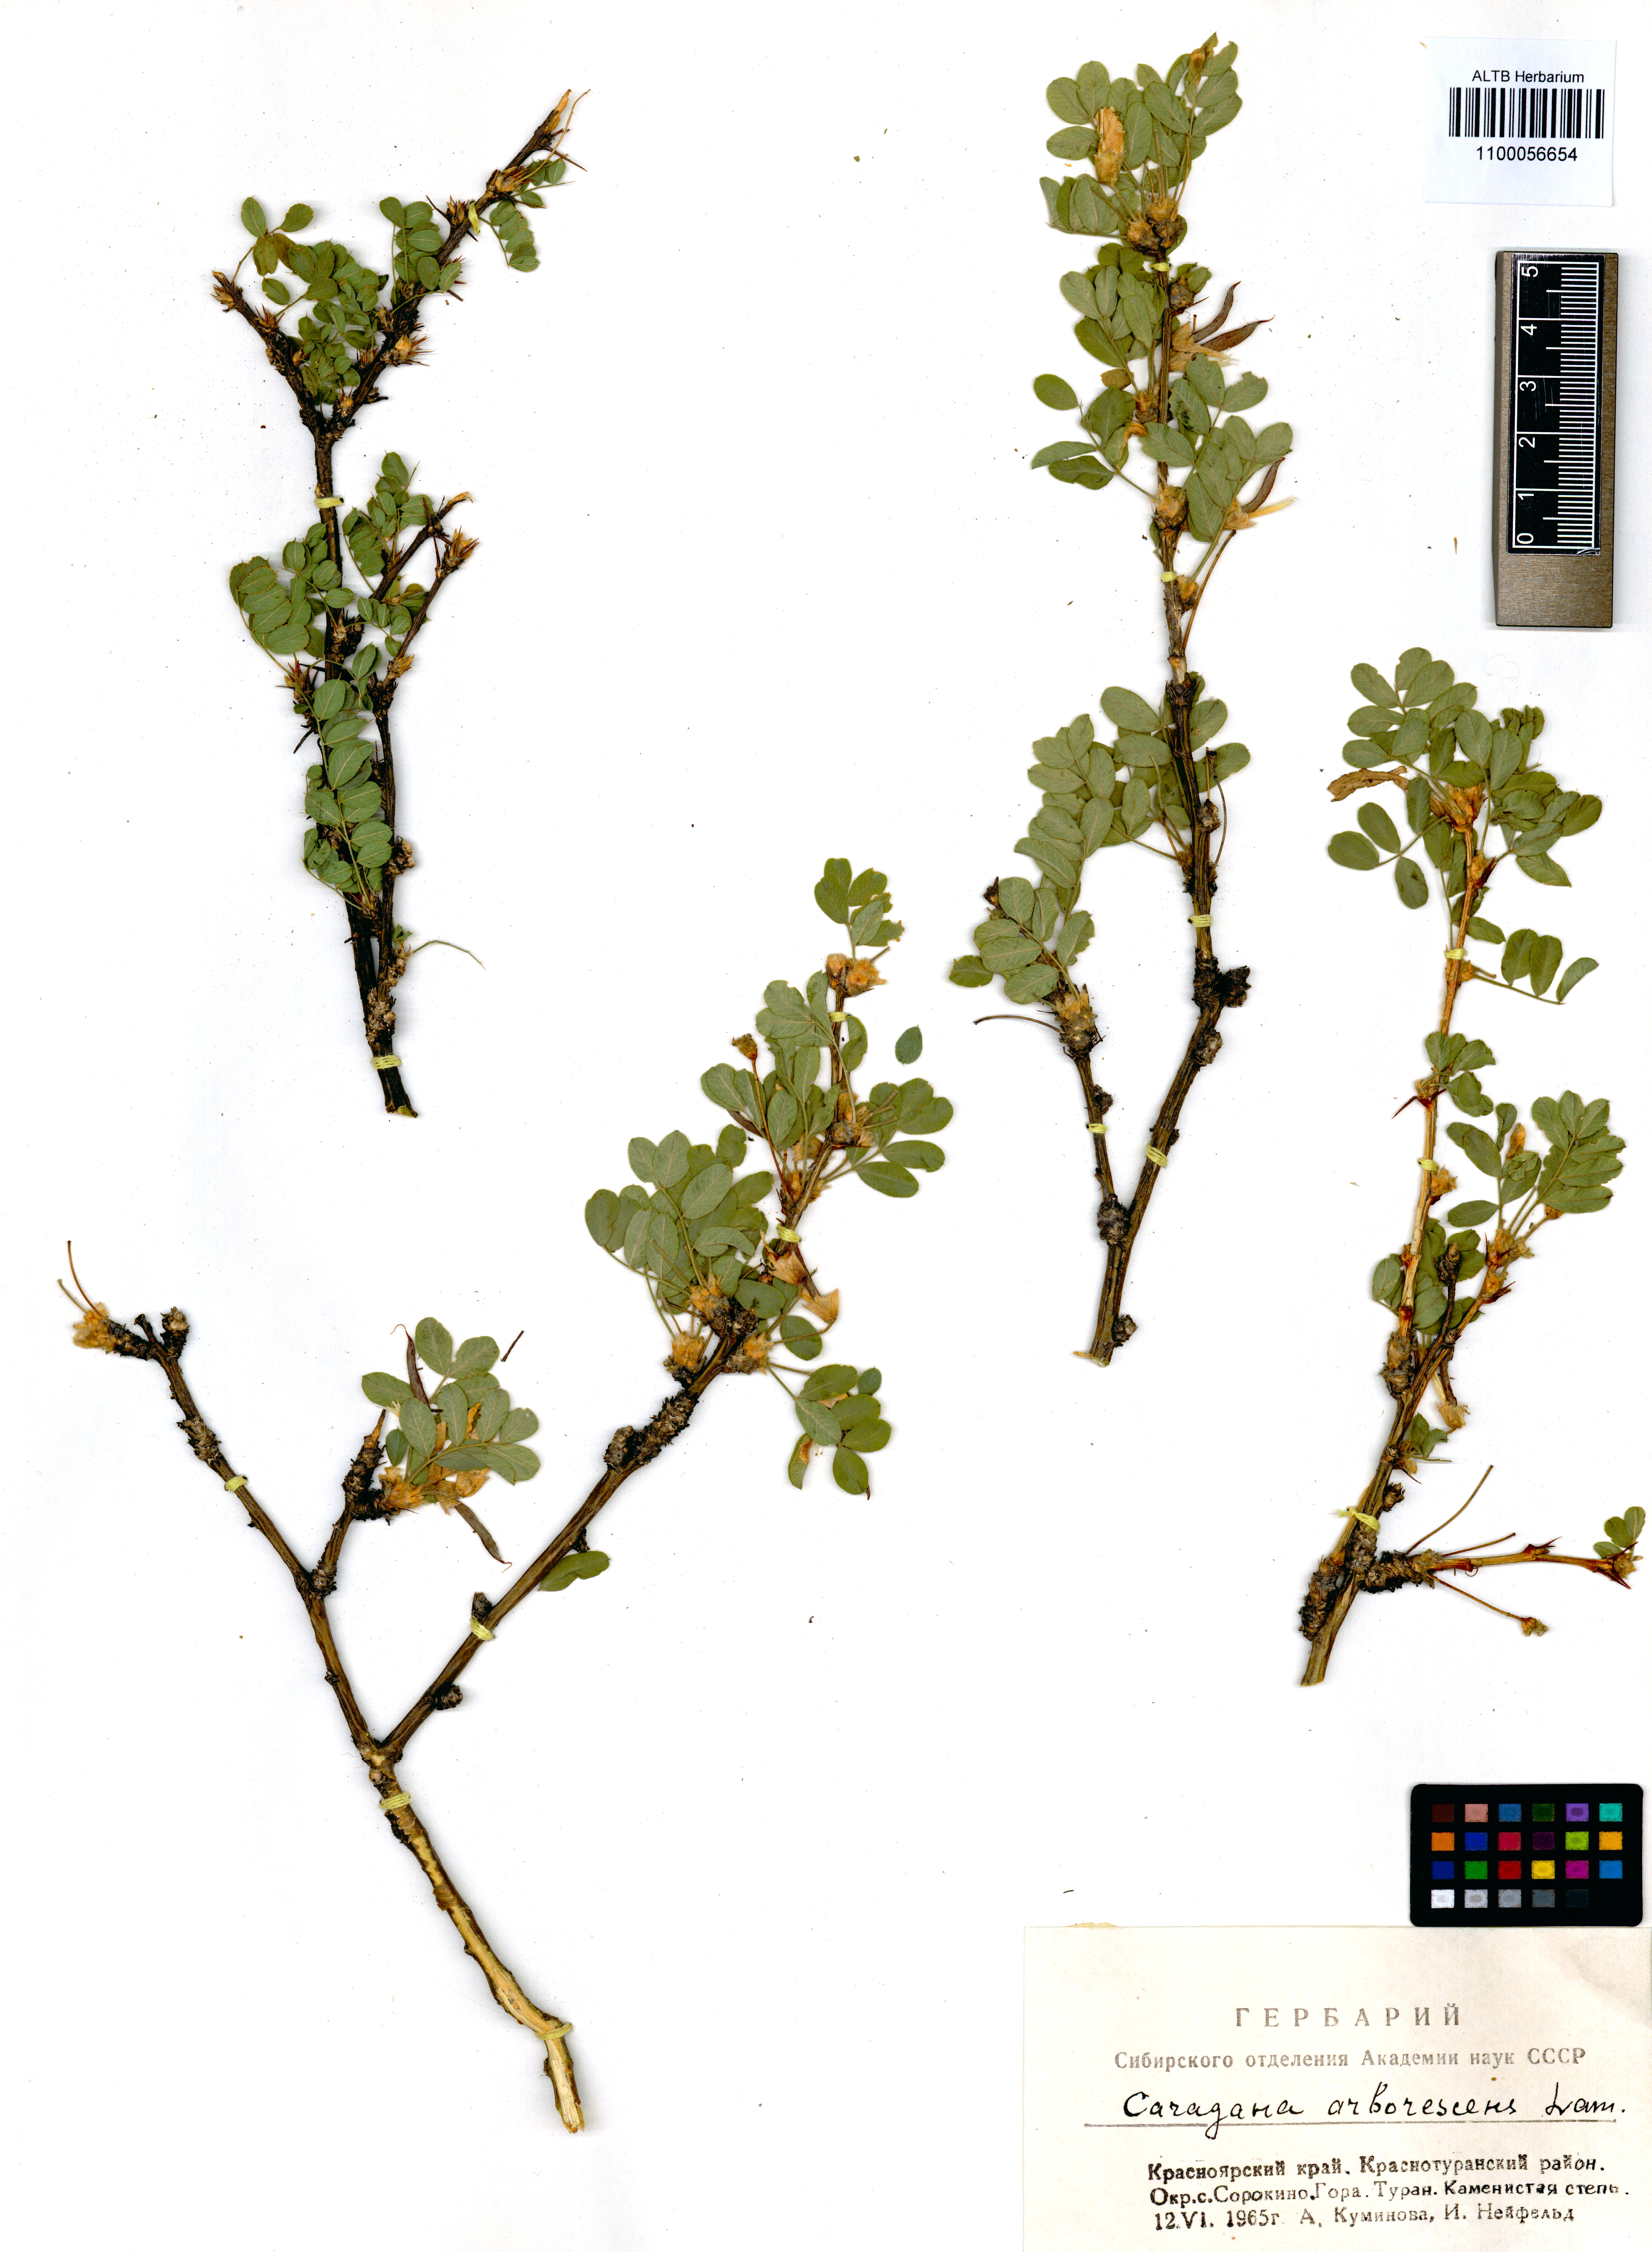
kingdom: Plantae
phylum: Tracheophyta
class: Magnoliopsida
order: Fabales
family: Fabaceae
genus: Caragana
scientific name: Caragana arborescens
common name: Siberian peashrub
